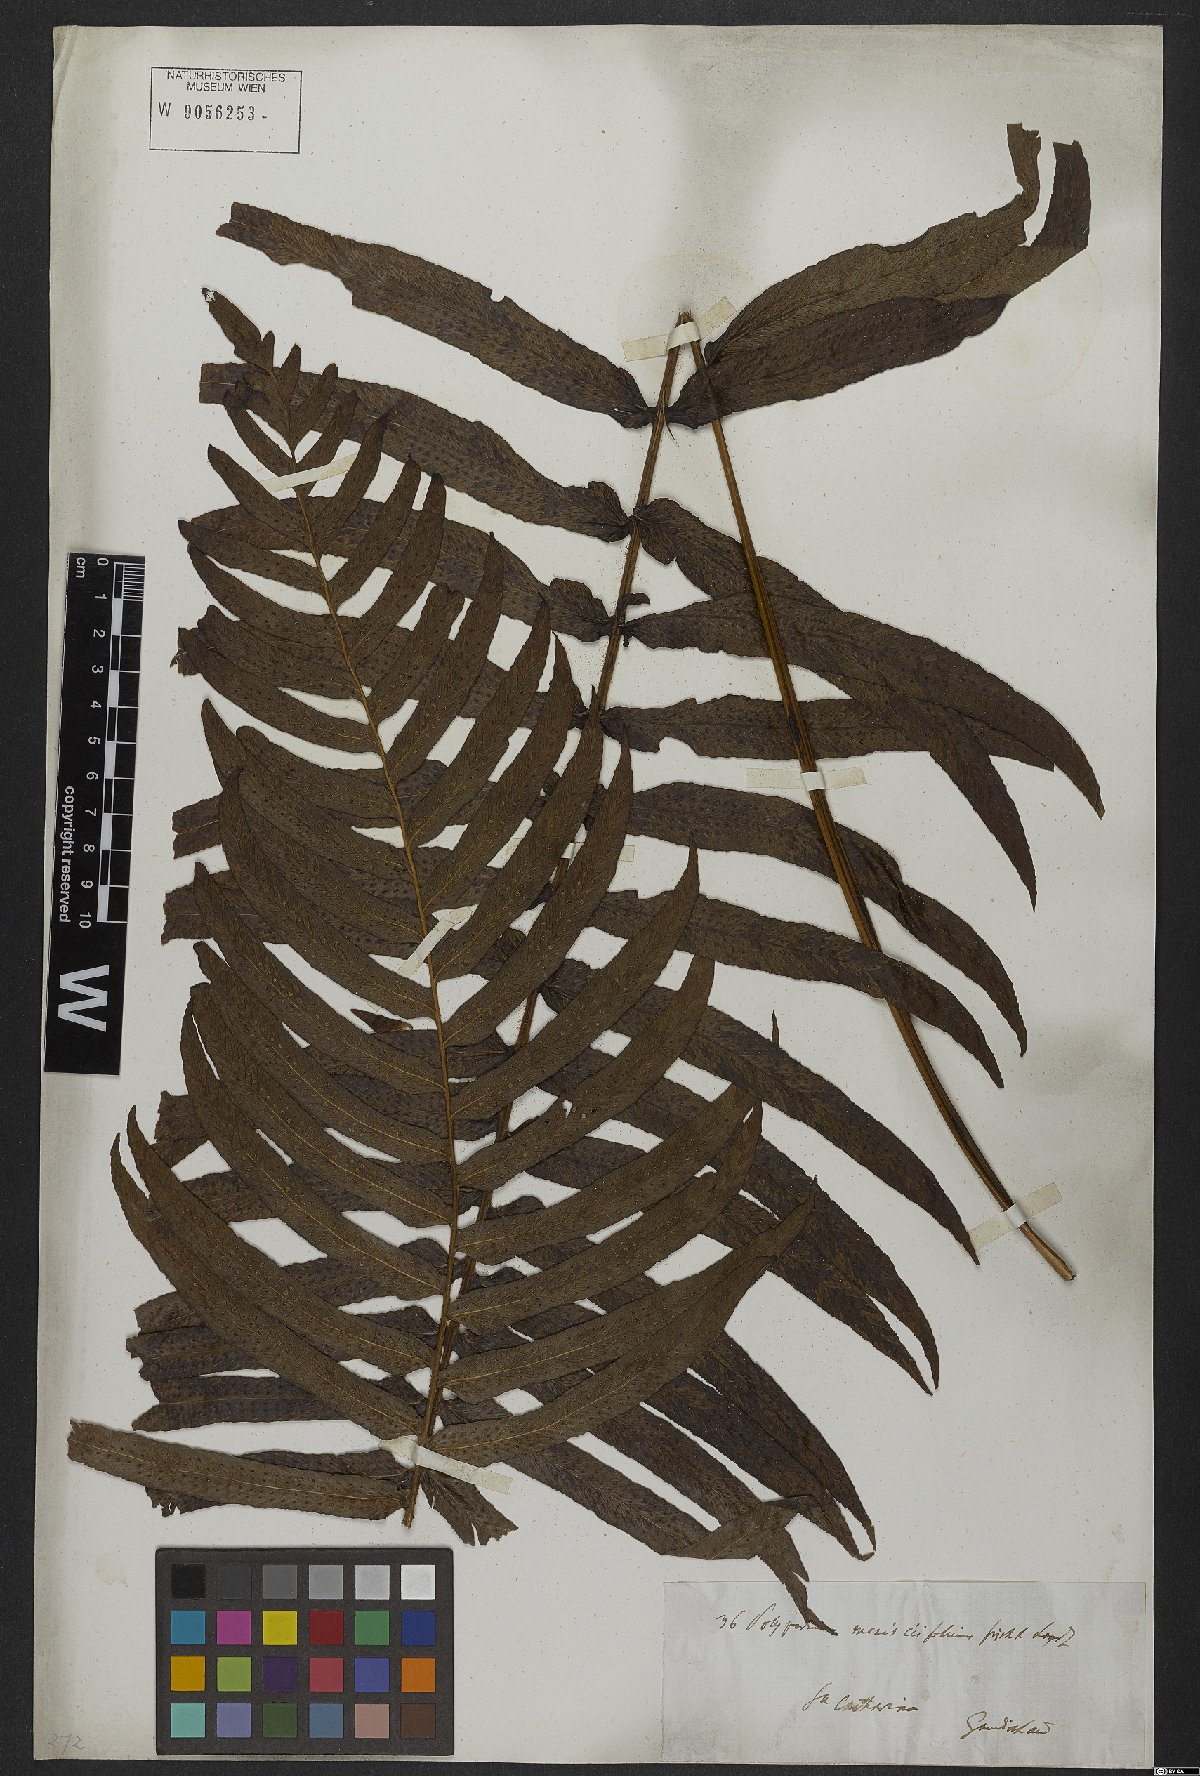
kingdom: Plantae
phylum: Tracheophyta
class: Polypodiopsida
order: Polypodiales
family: Polypodiaceae
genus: Serpocaulon
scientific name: Serpocaulon triseriale
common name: Angle-vein fern
